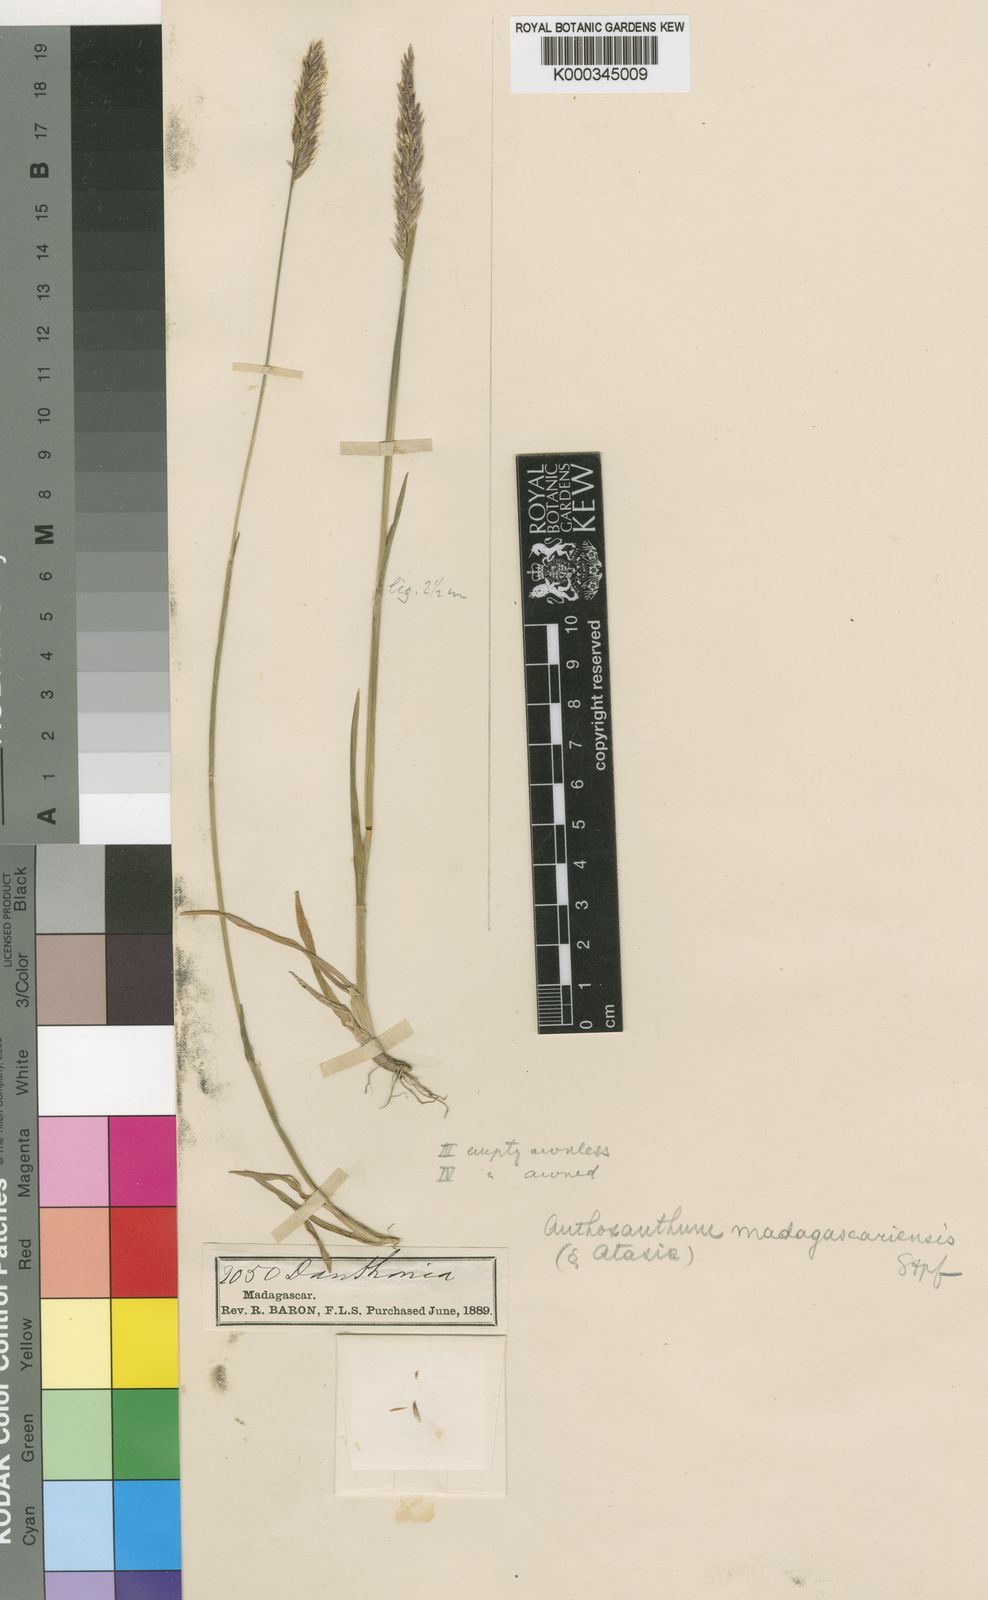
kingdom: Plantae
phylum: Tracheophyta
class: Liliopsida
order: Poales
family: Poaceae
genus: Anthoxanthum
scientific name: Anthoxanthum odoratum
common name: Sweet vernalgrass
